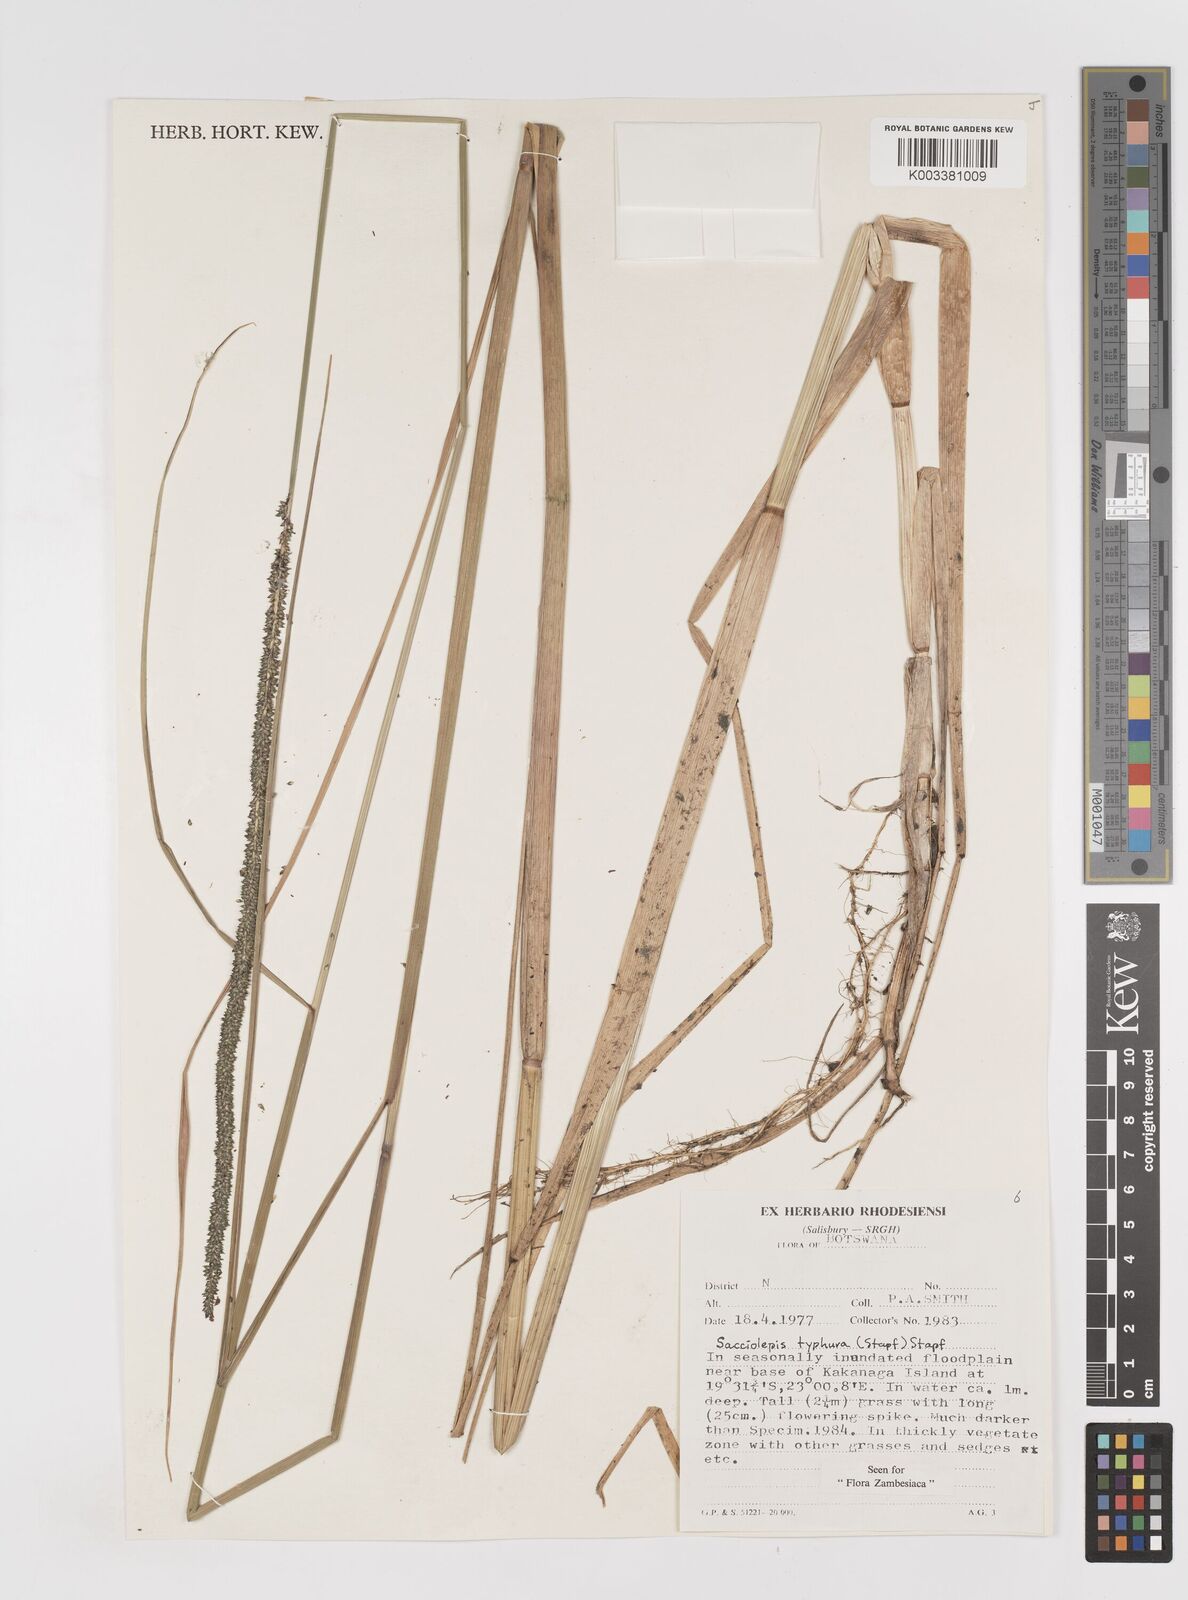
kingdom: Plantae
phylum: Tracheophyta
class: Liliopsida
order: Poales
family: Poaceae
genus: Sacciolepis
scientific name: Sacciolepis typhura
